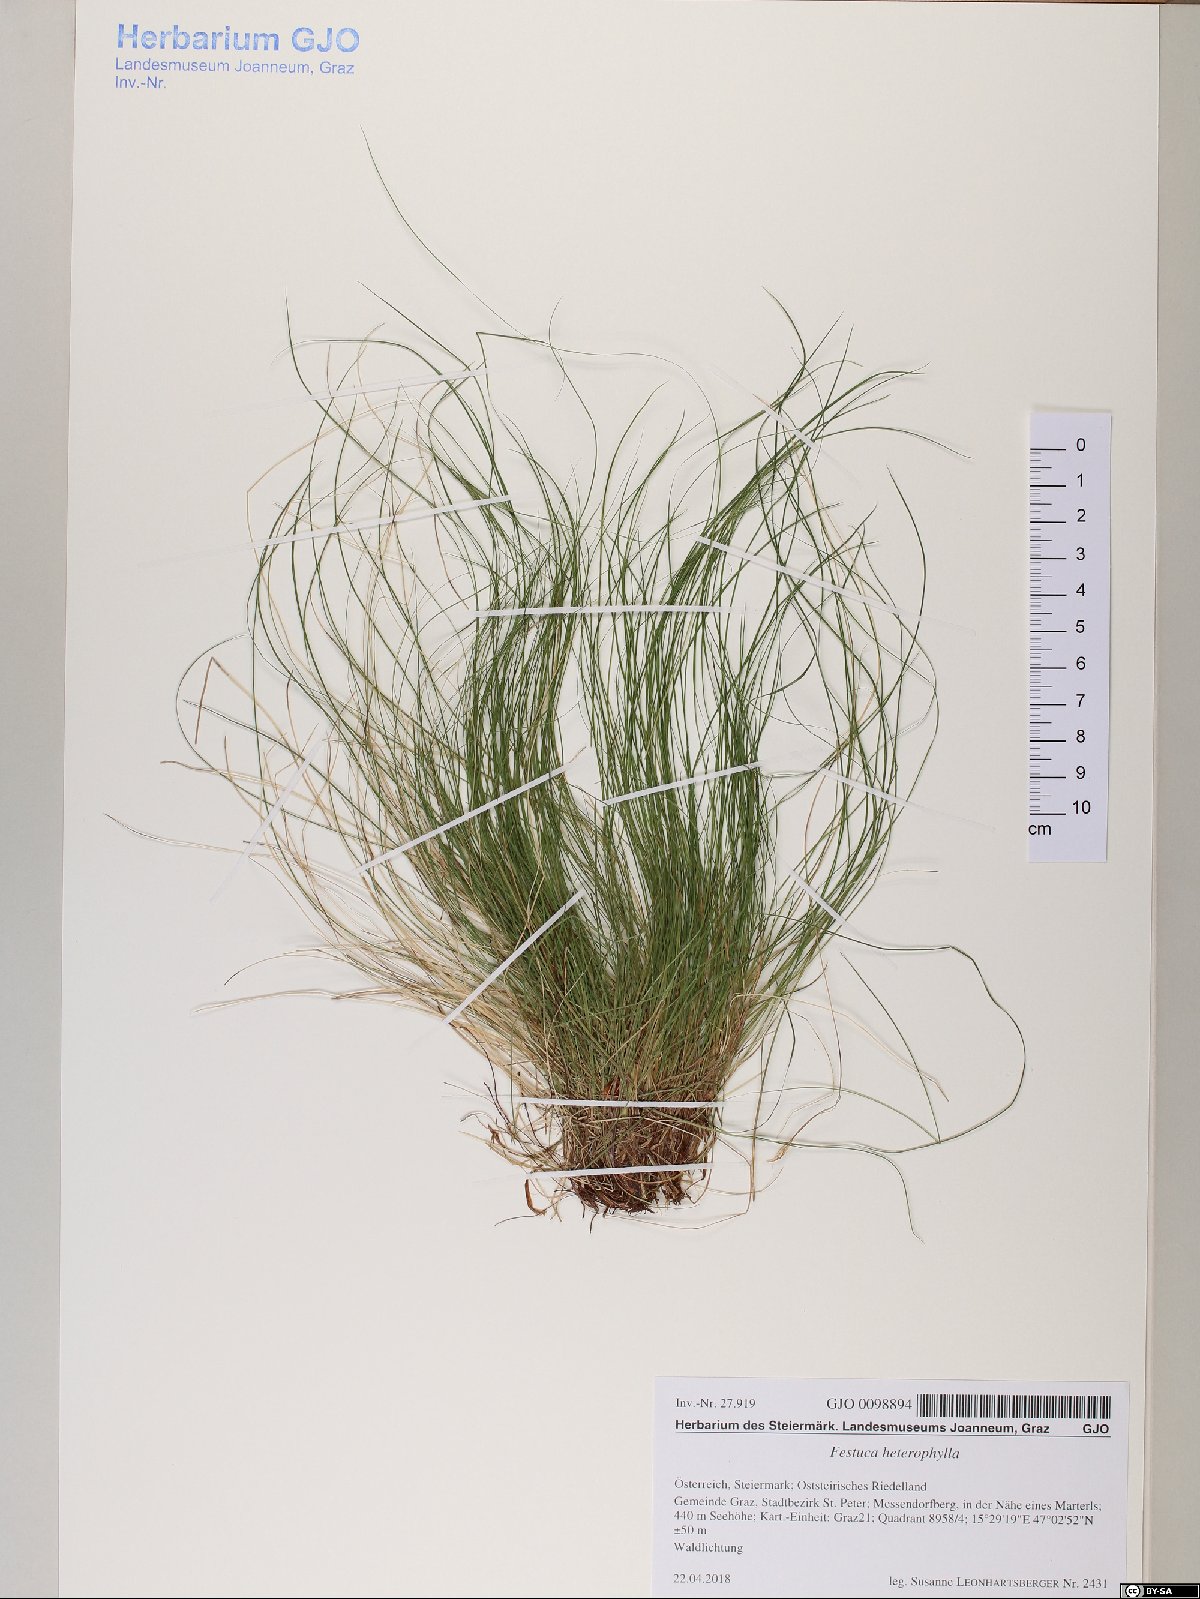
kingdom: Plantae
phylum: Tracheophyta
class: Liliopsida
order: Poales
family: Poaceae
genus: Festuca
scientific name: Festuca heterophylla
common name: Various-leaved fescue
